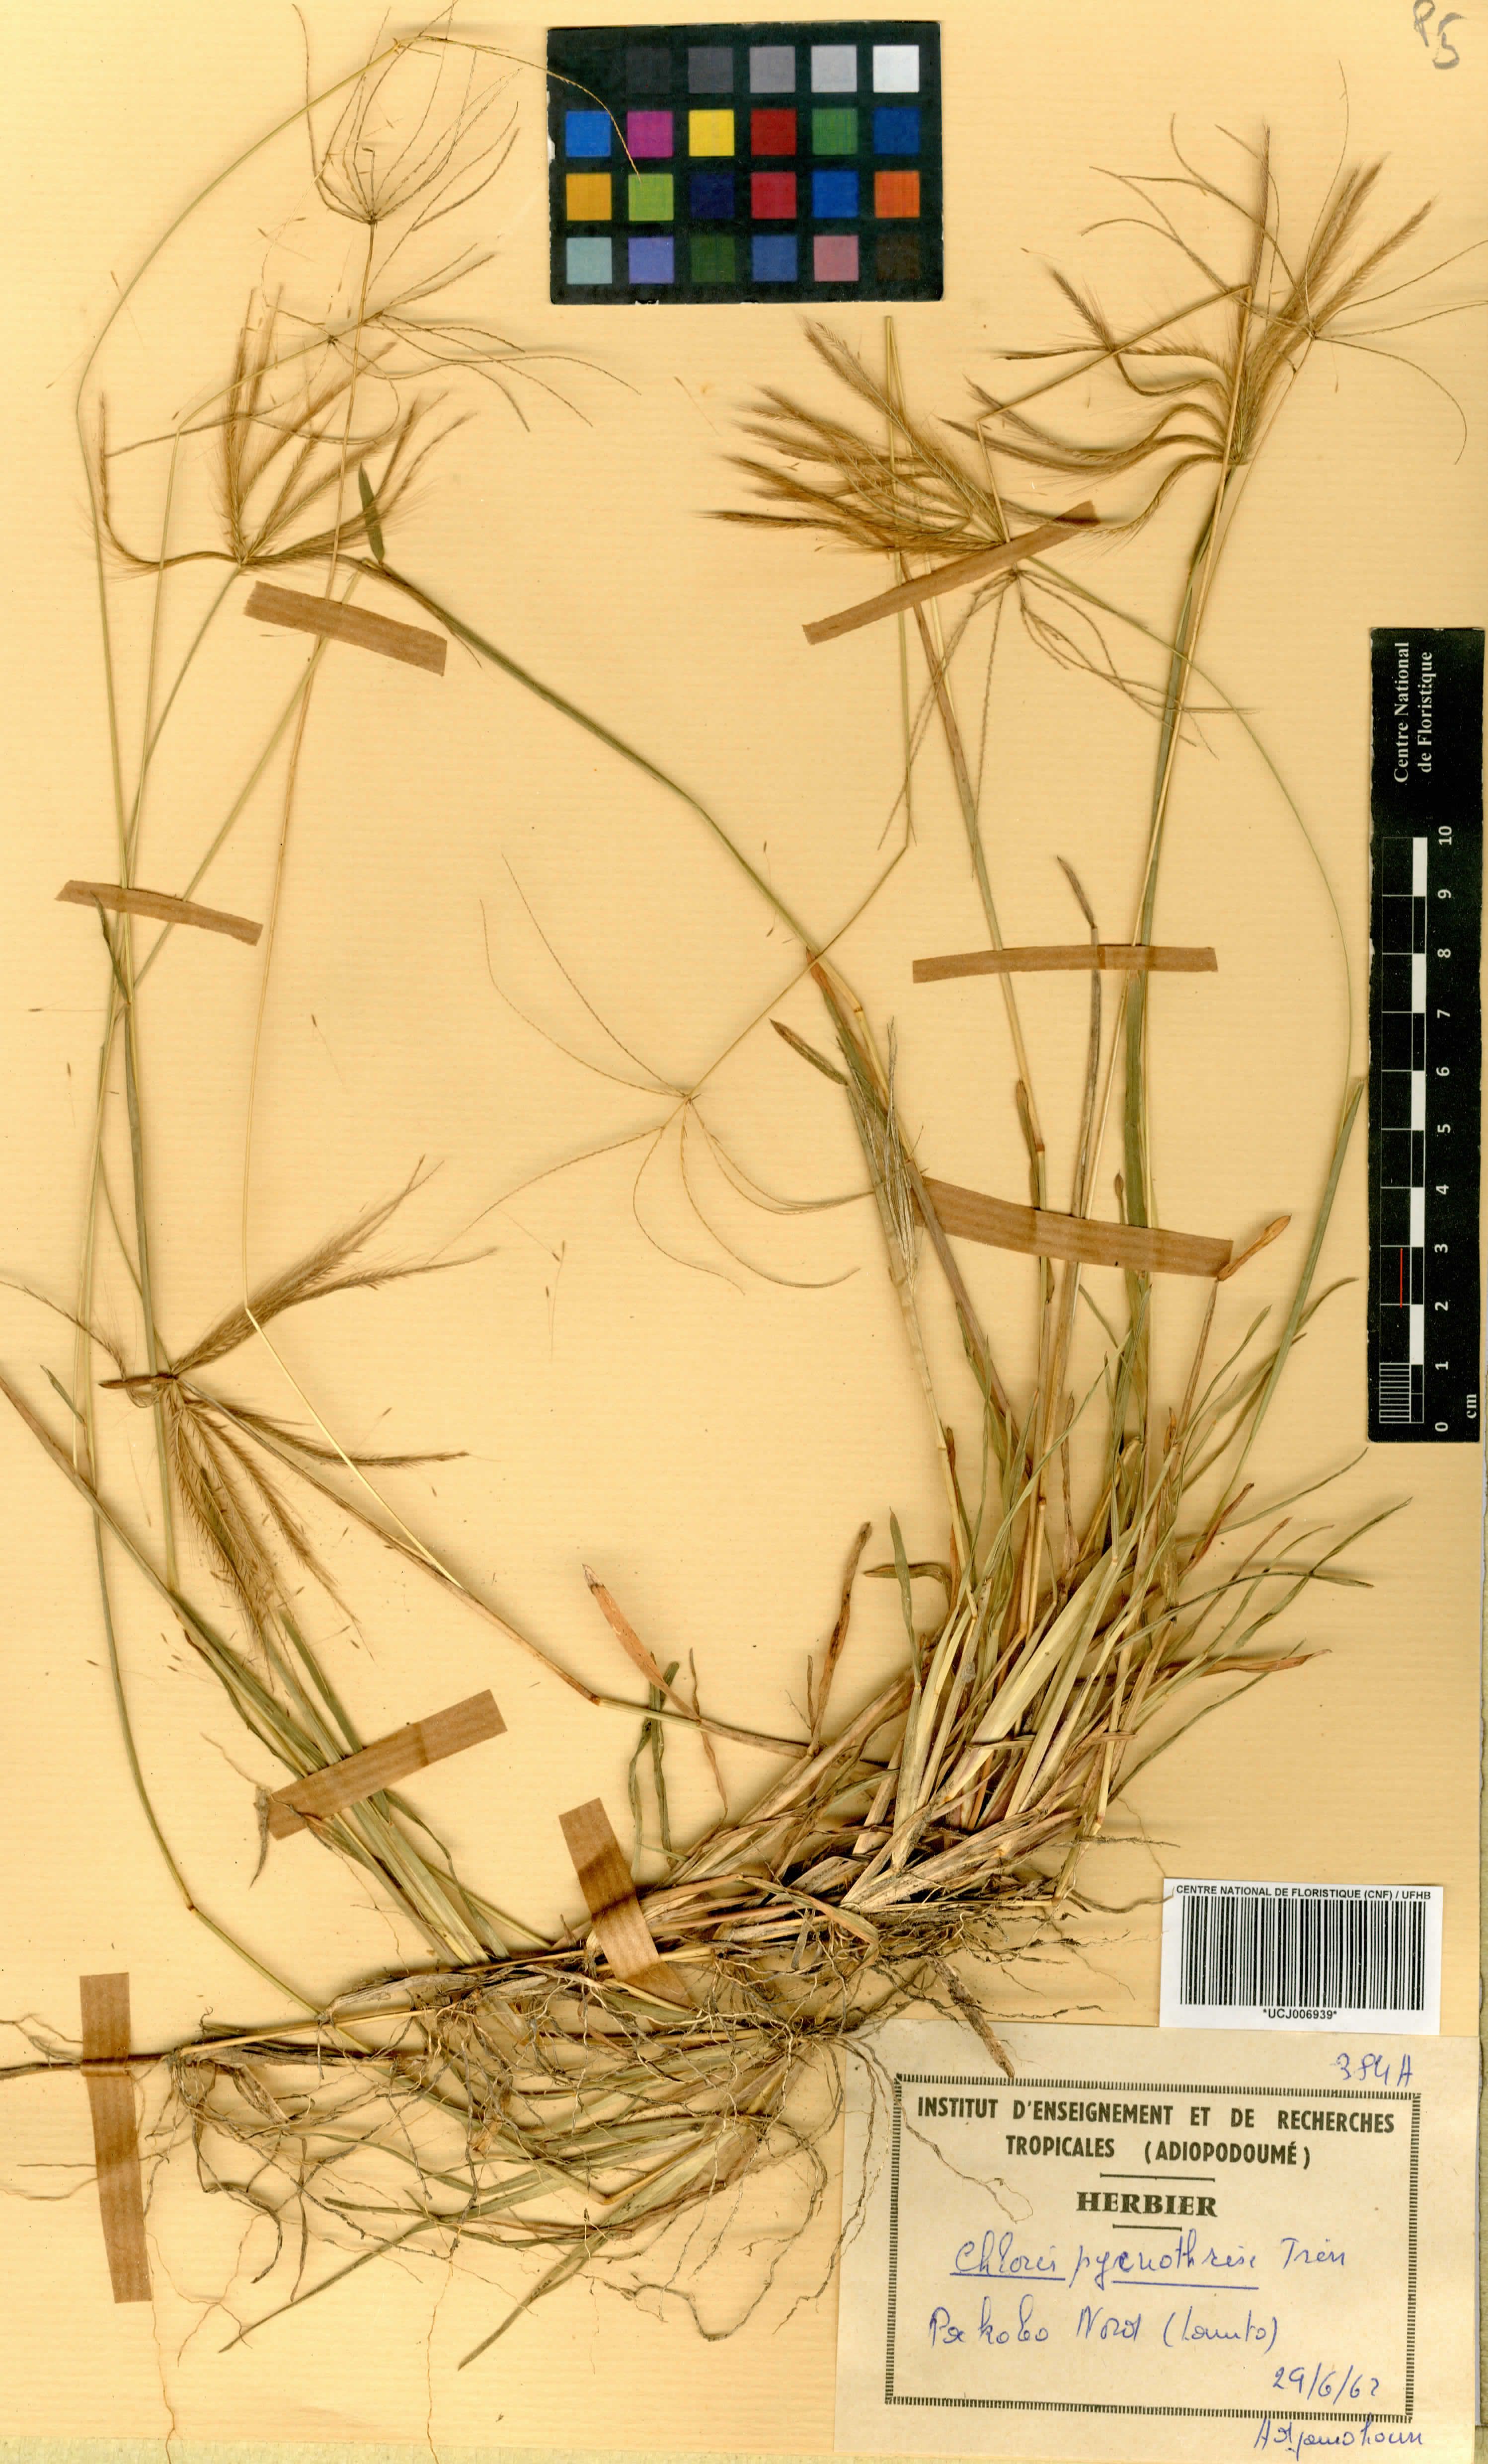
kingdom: Plantae
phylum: Tracheophyta
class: Liliopsida
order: Poales
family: Poaceae
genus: Chloris
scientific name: Chloris pycnothrix
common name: Spiderweb chloris
